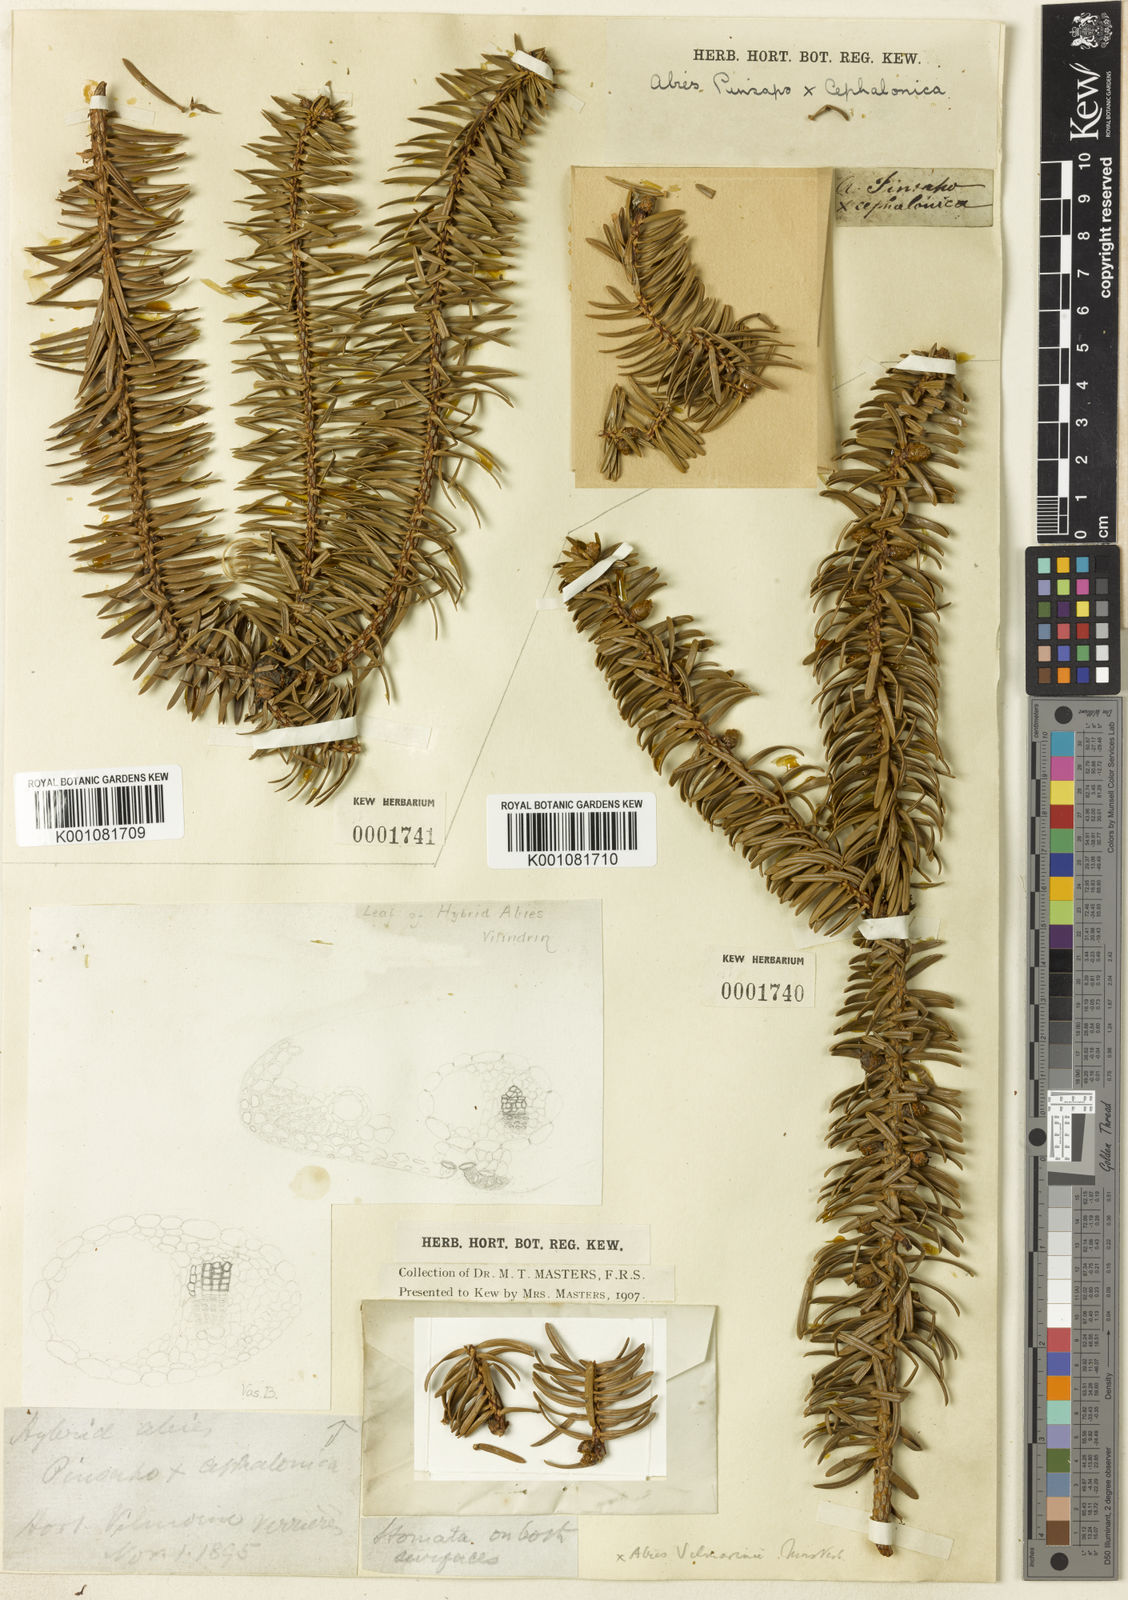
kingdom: Plantae
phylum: Tracheophyta
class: Pinopsida
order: Pinales
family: Pinaceae
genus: Abies
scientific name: Abies
